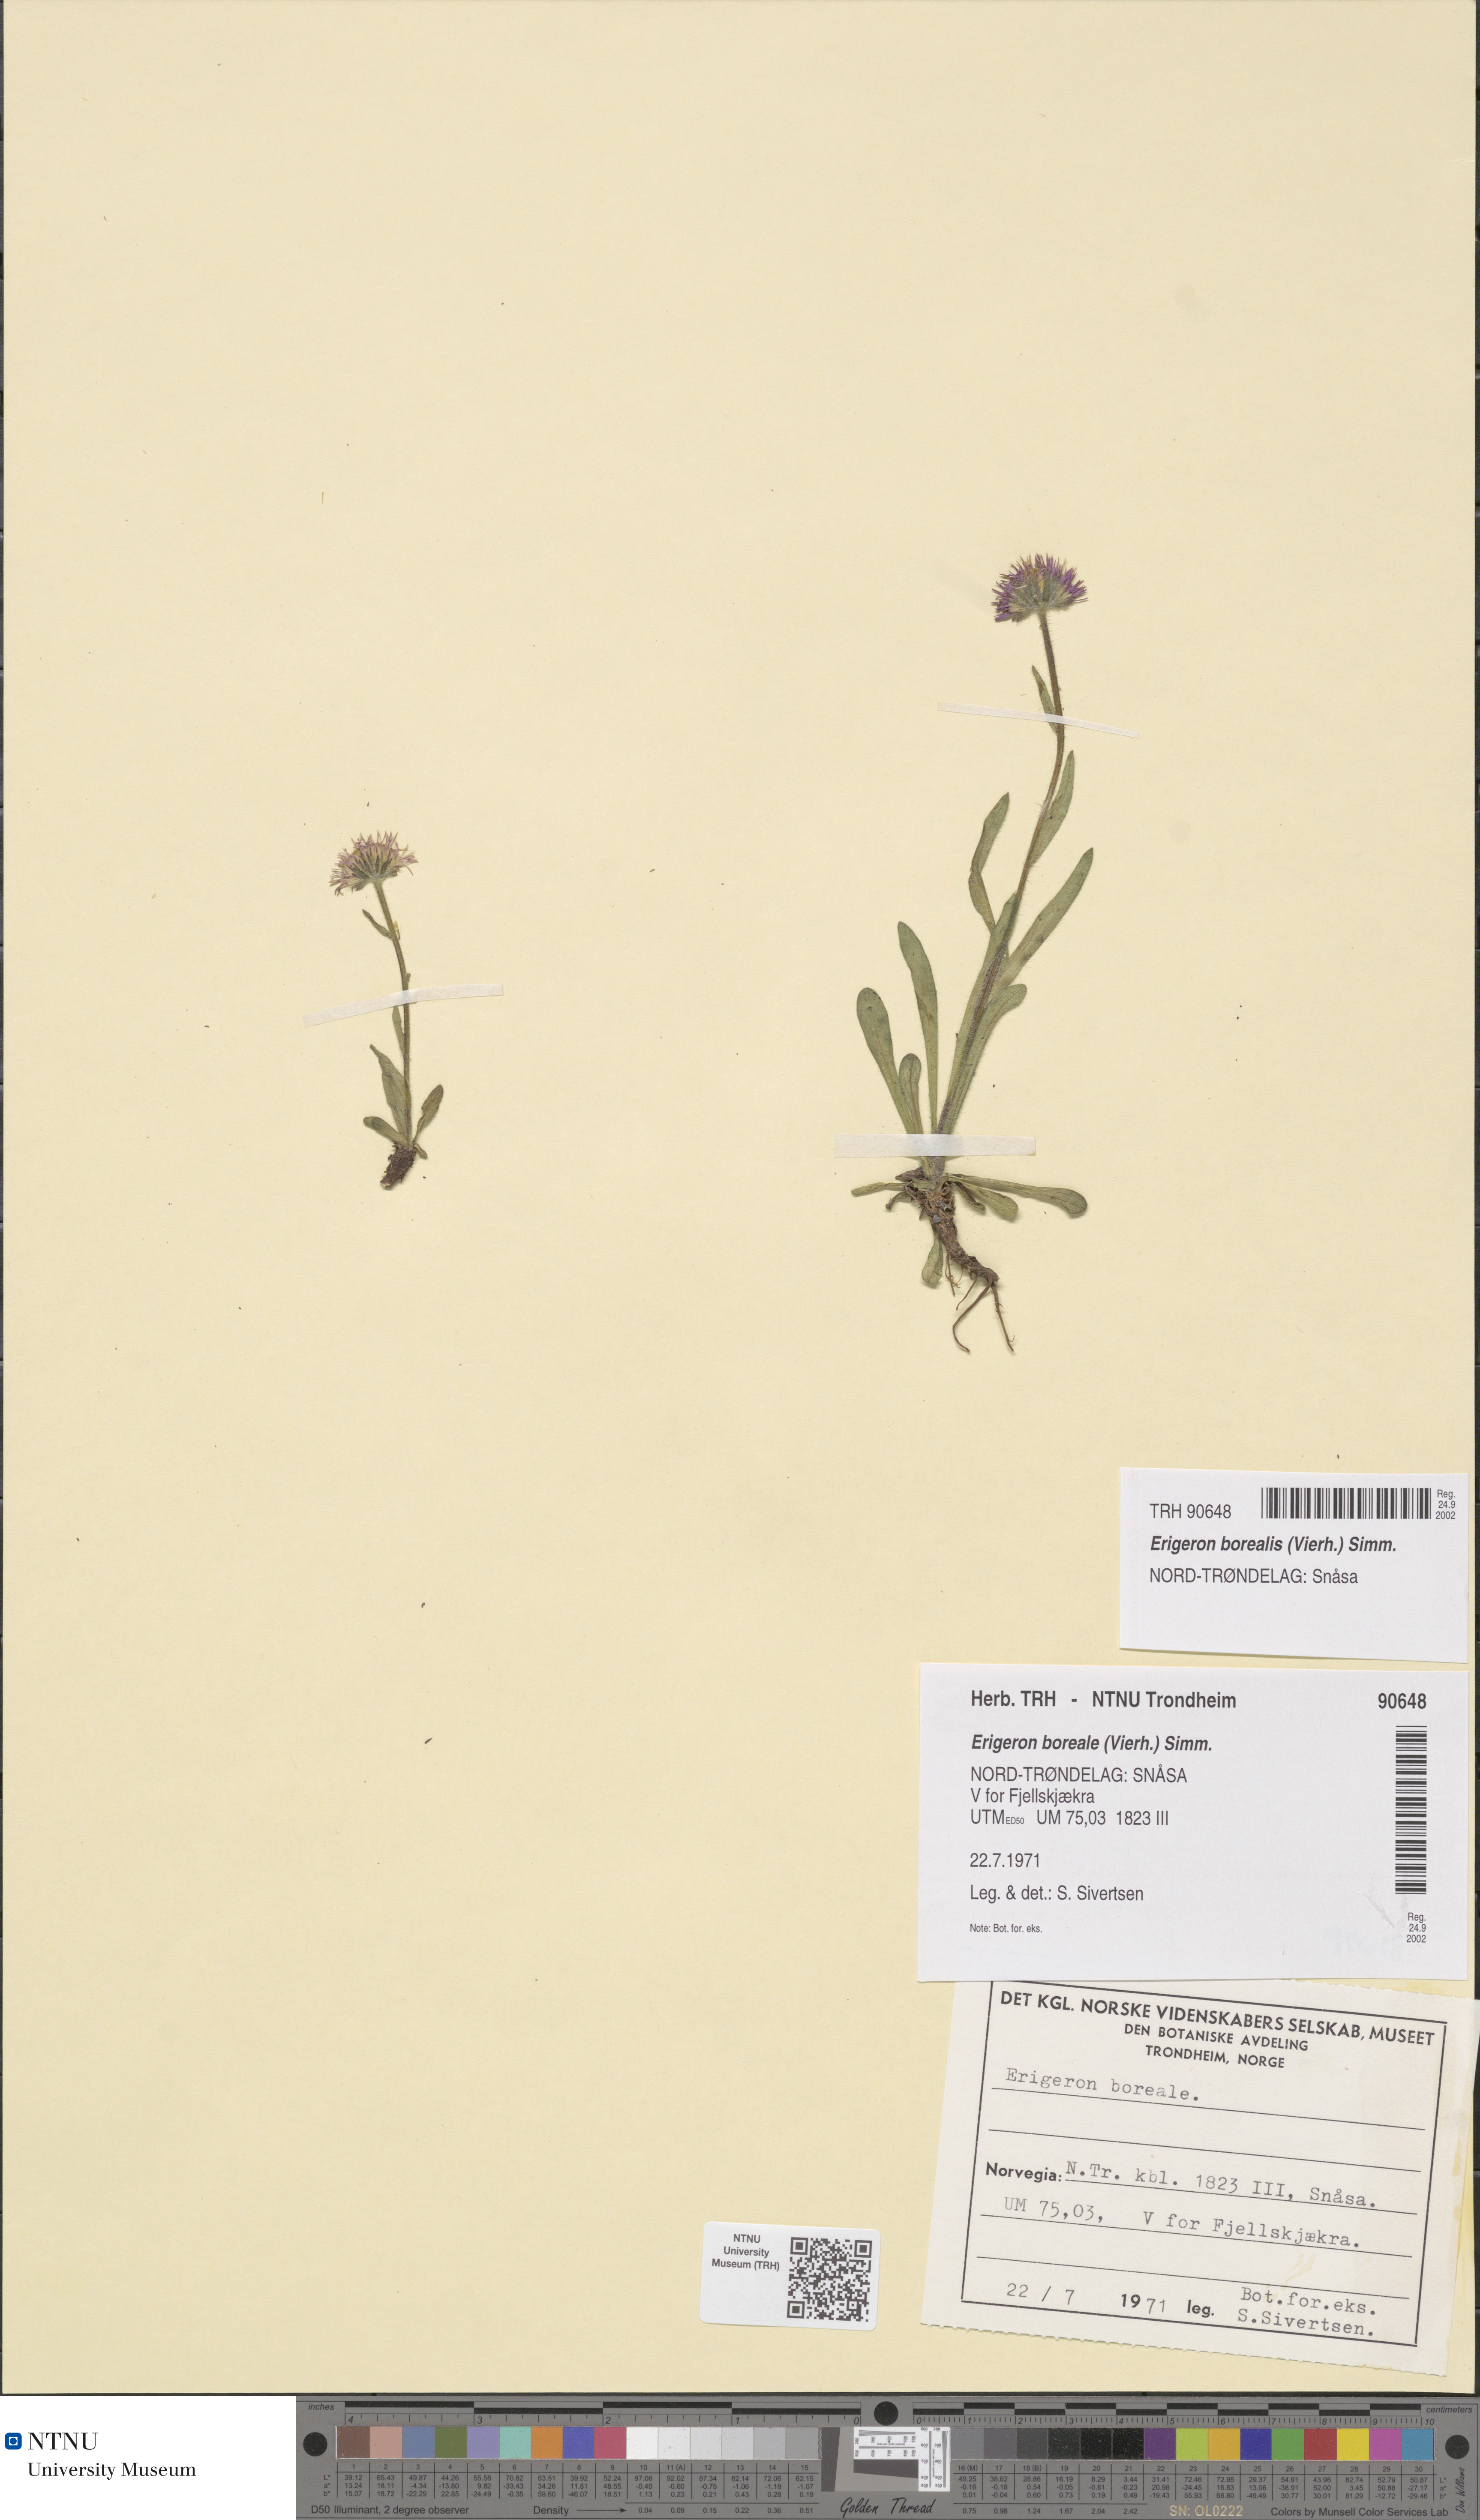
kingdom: Plantae
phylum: Tracheophyta
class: Magnoliopsida
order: Asterales
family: Asteraceae
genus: Erigeron
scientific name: Erigeron borealis
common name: Alpine fleabane
